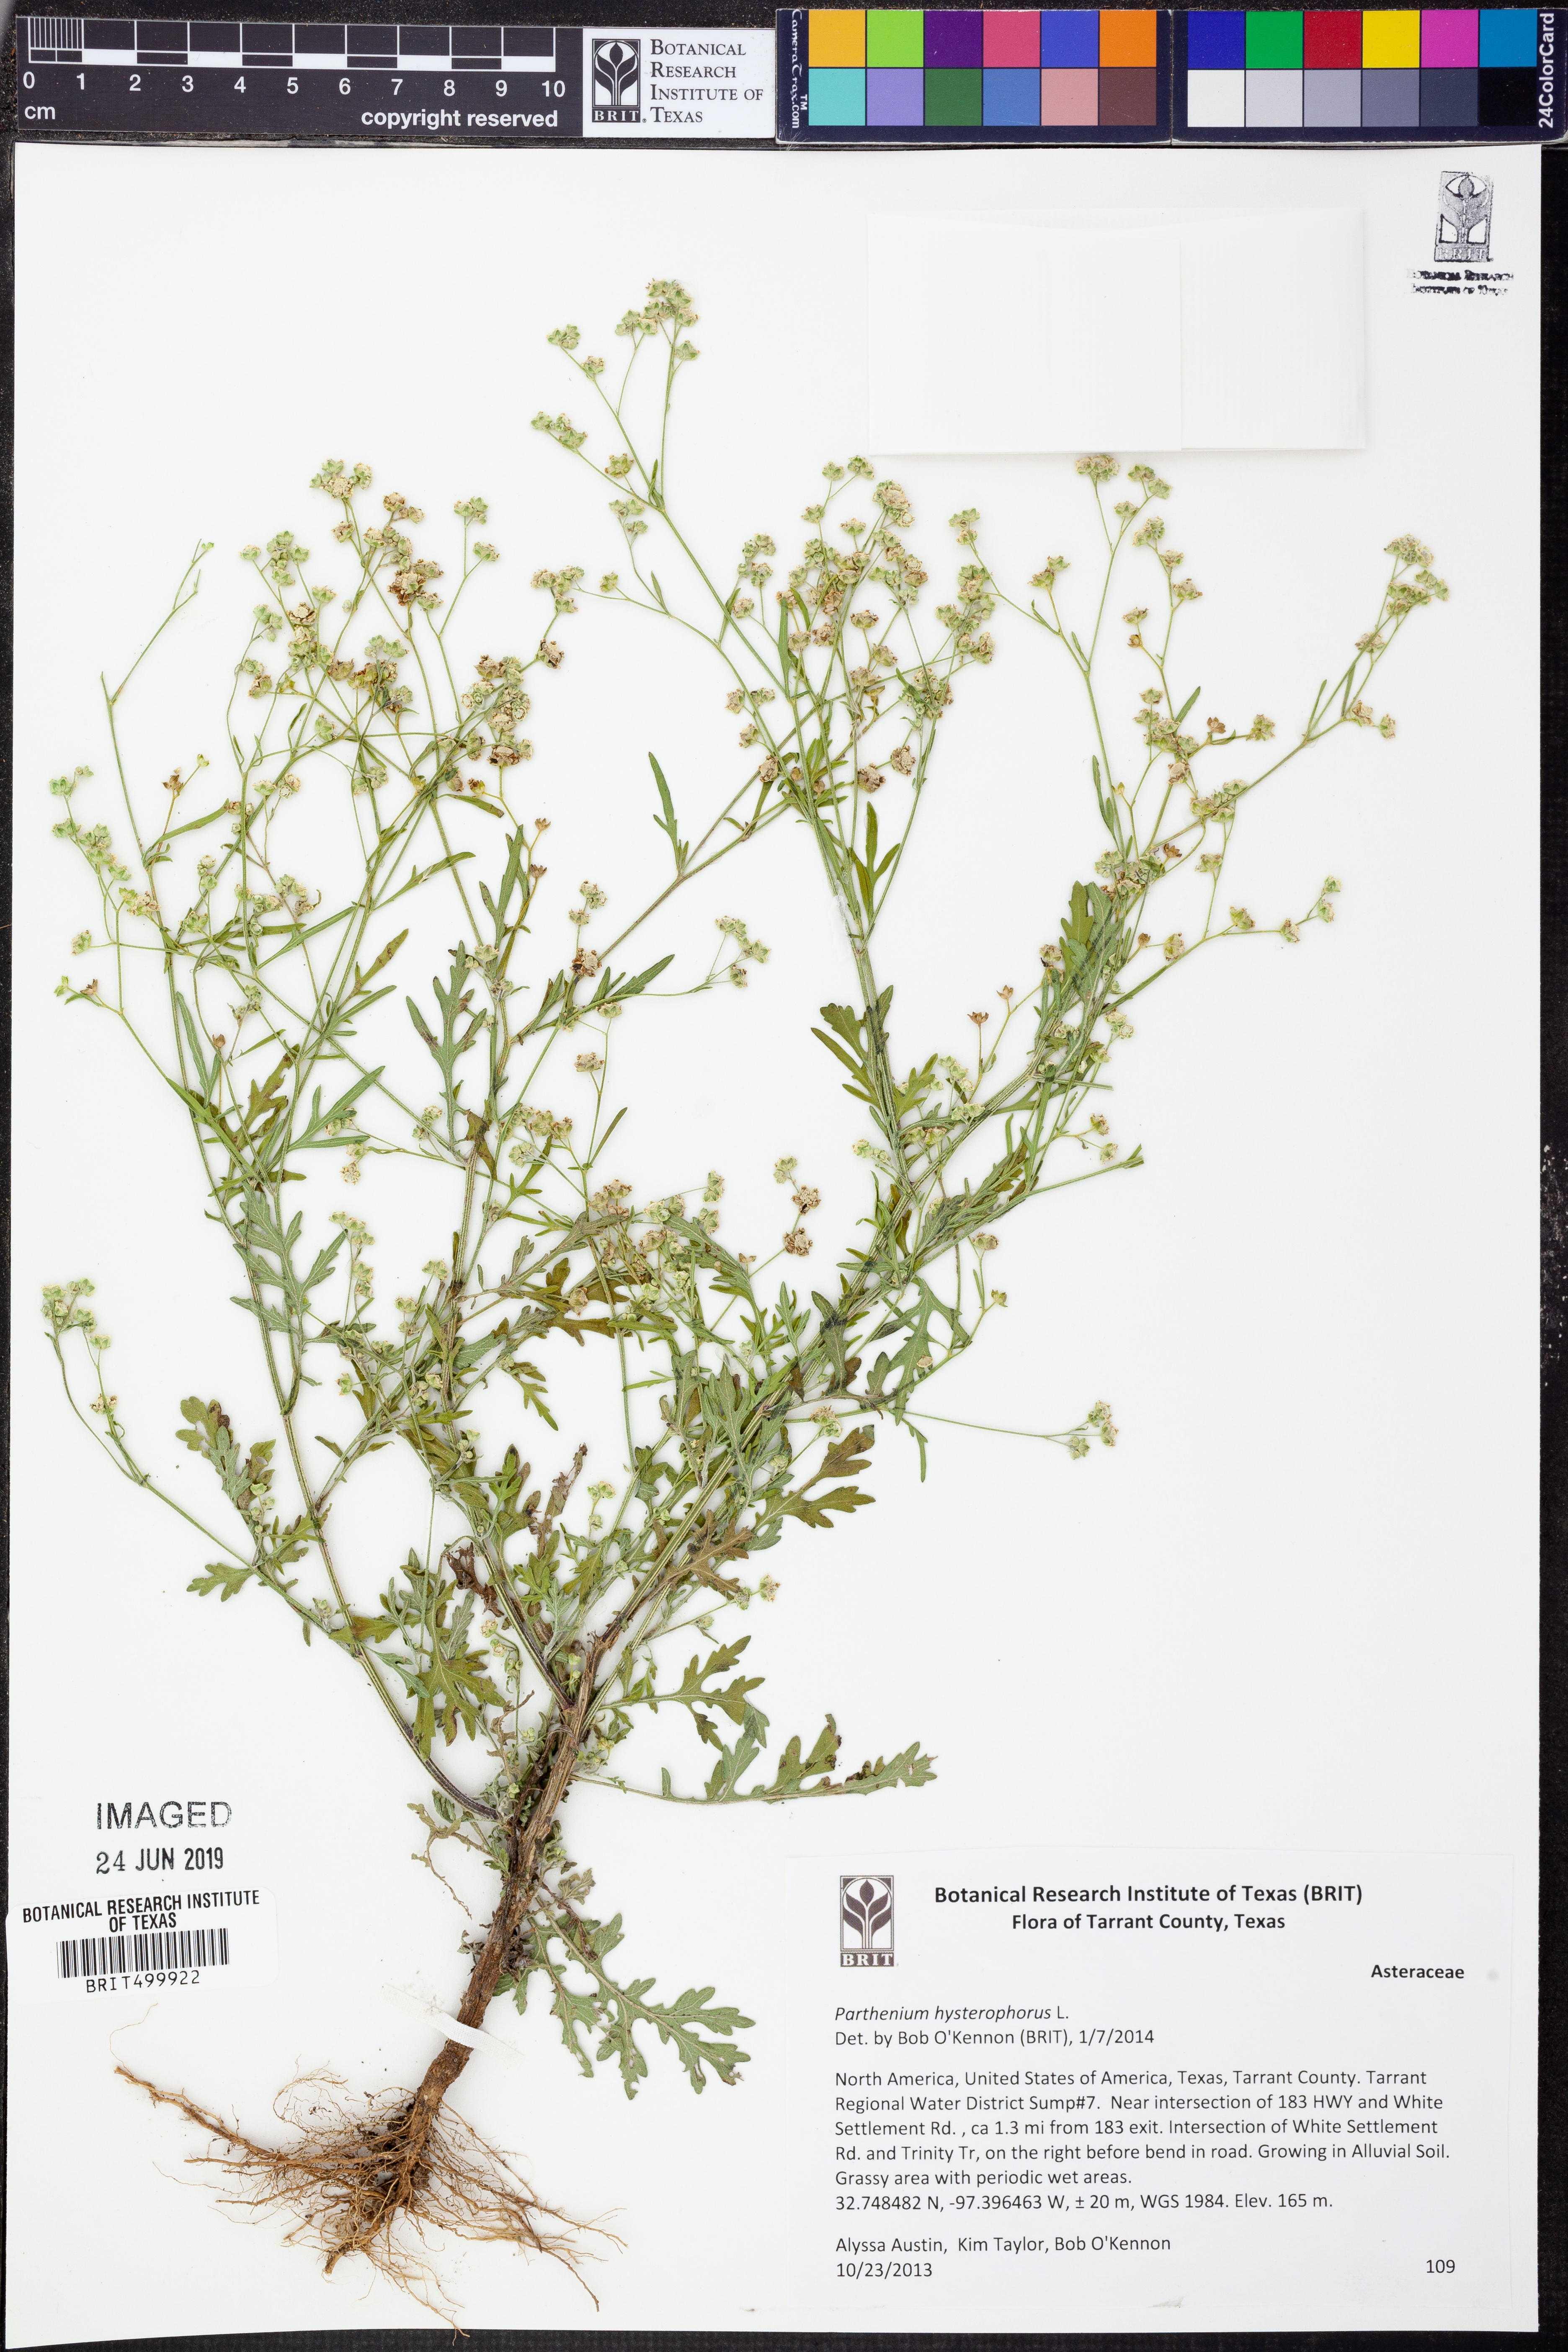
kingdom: Plantae
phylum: Tracheophyta
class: Magnoliopsida
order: Asterales
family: Asteraceae
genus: Parthenium
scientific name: Parthenium hysterophorus
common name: Santa maria feverfew
